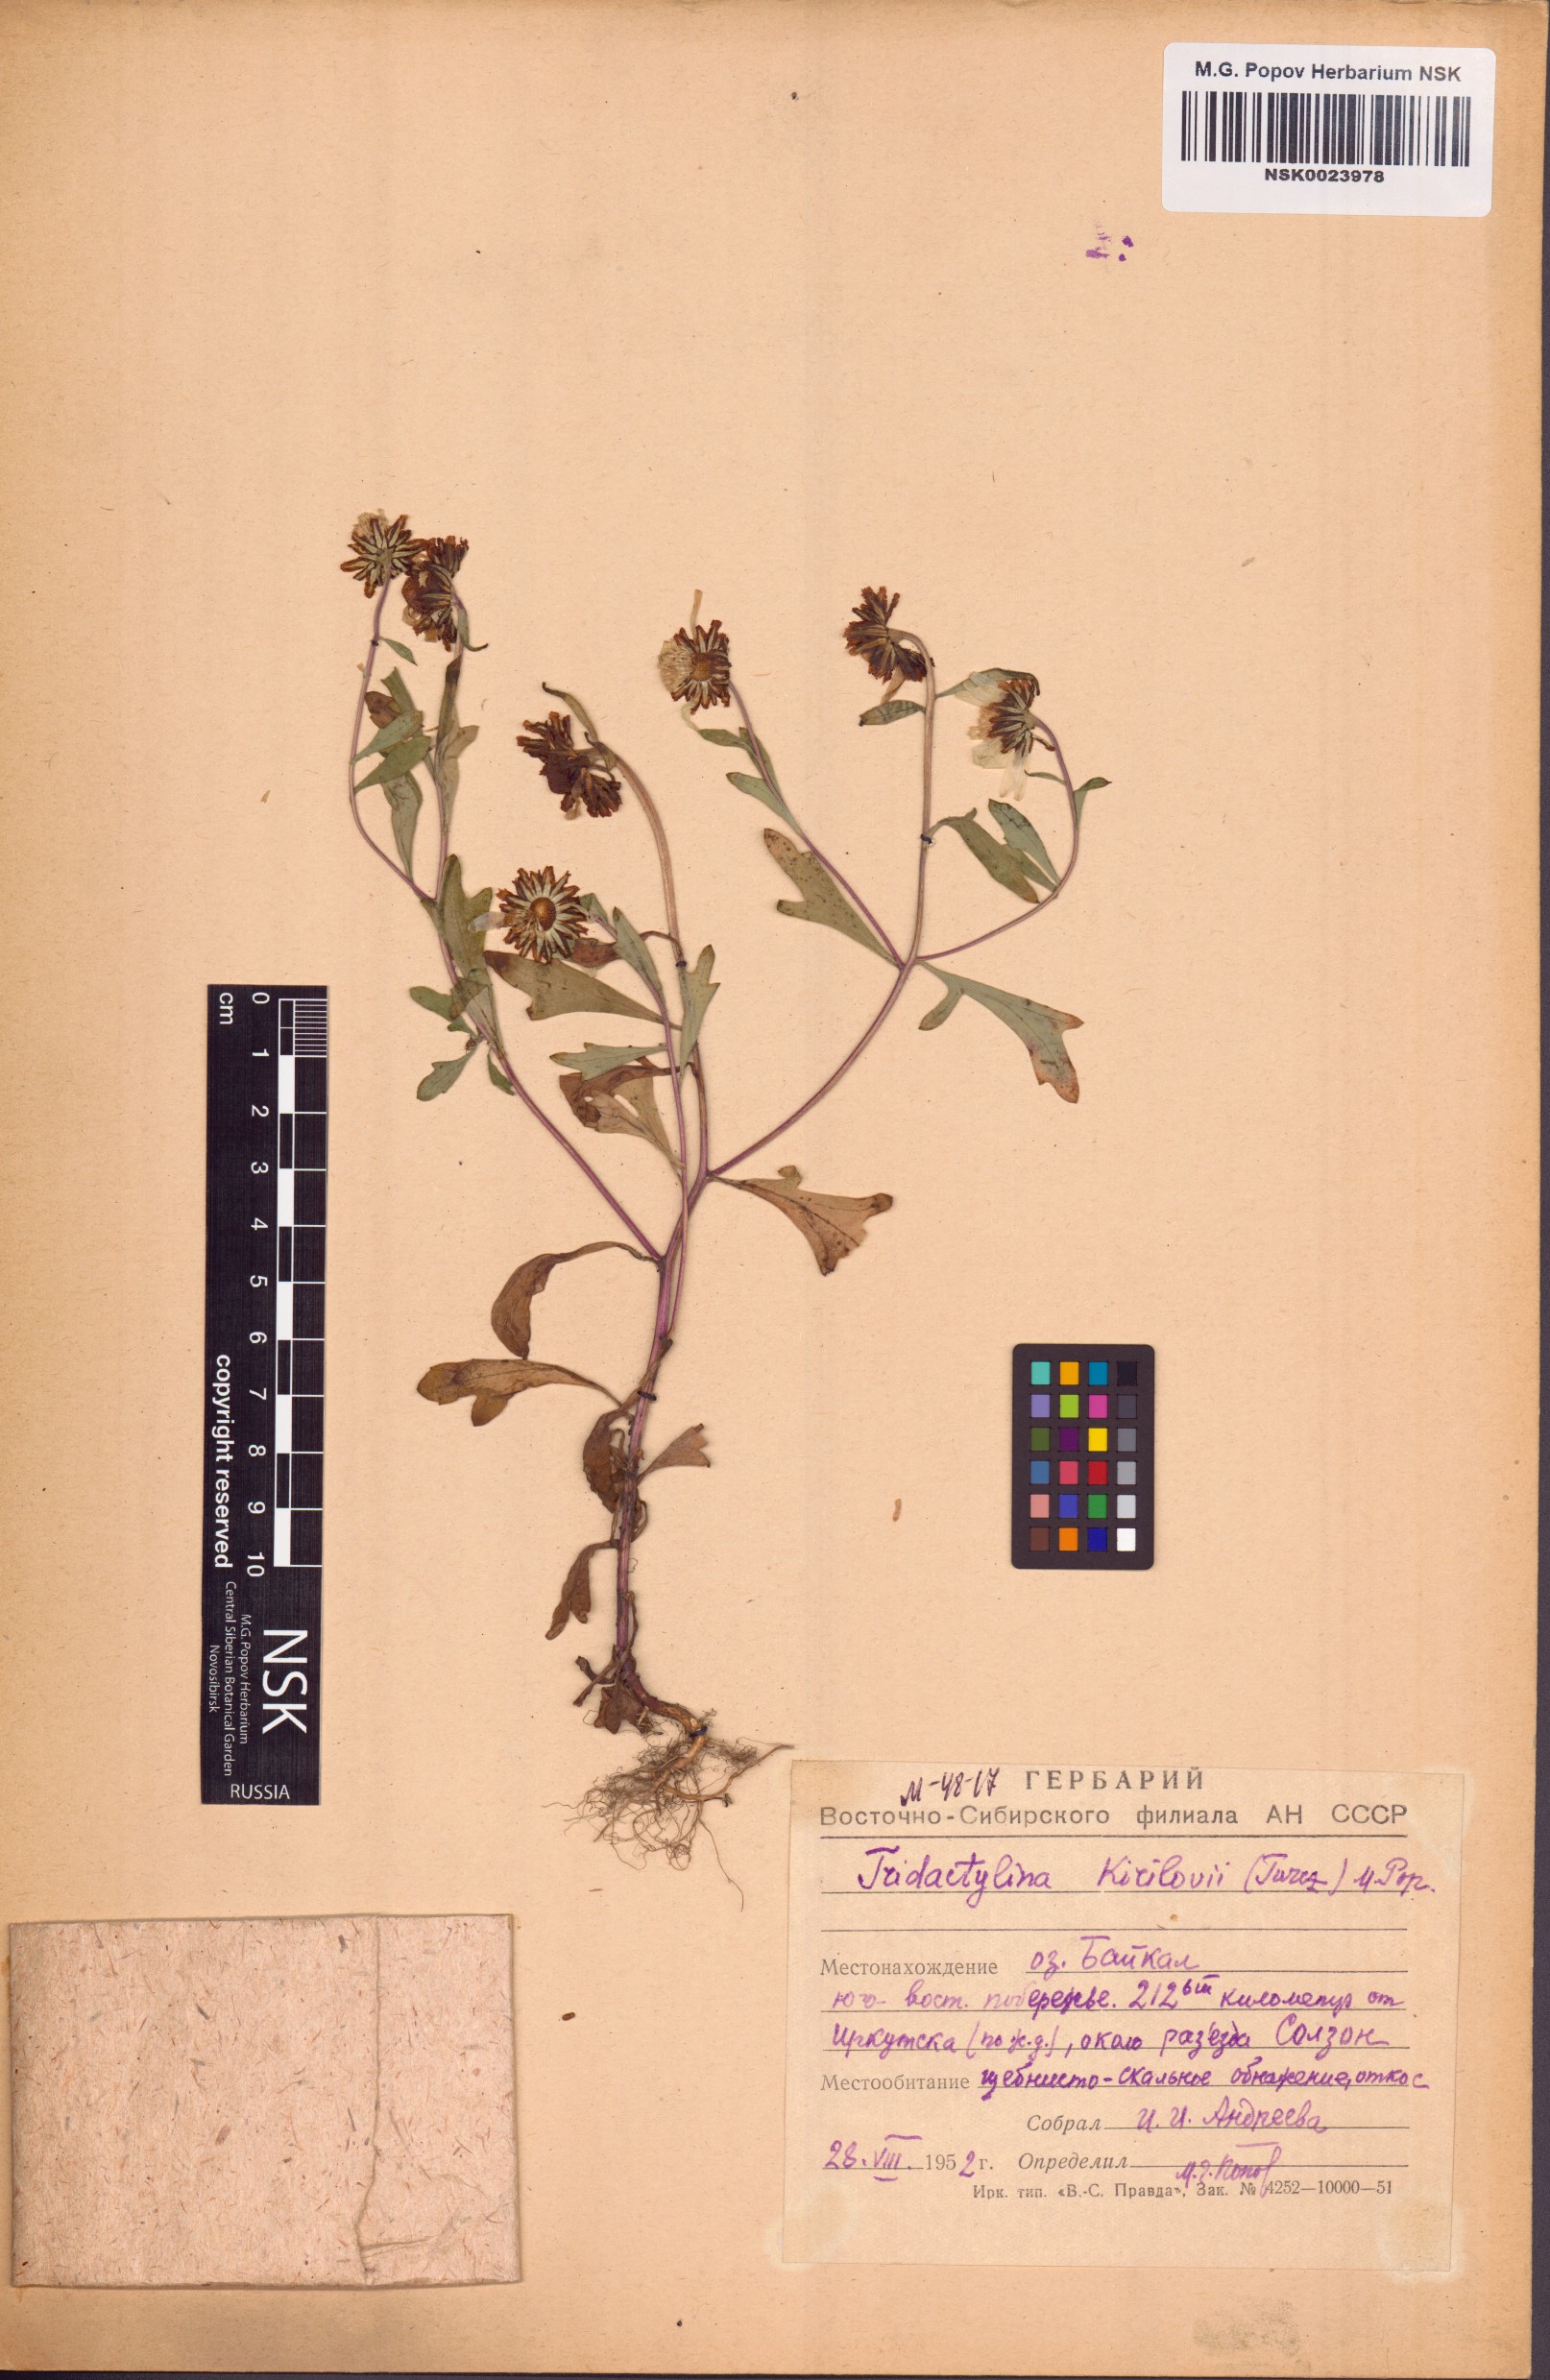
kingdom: Plantae
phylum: Tracheophyta
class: Magnoliopsida
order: Asterales
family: Asteraceae
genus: Tridactylina
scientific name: Tridactylina kirilowii
